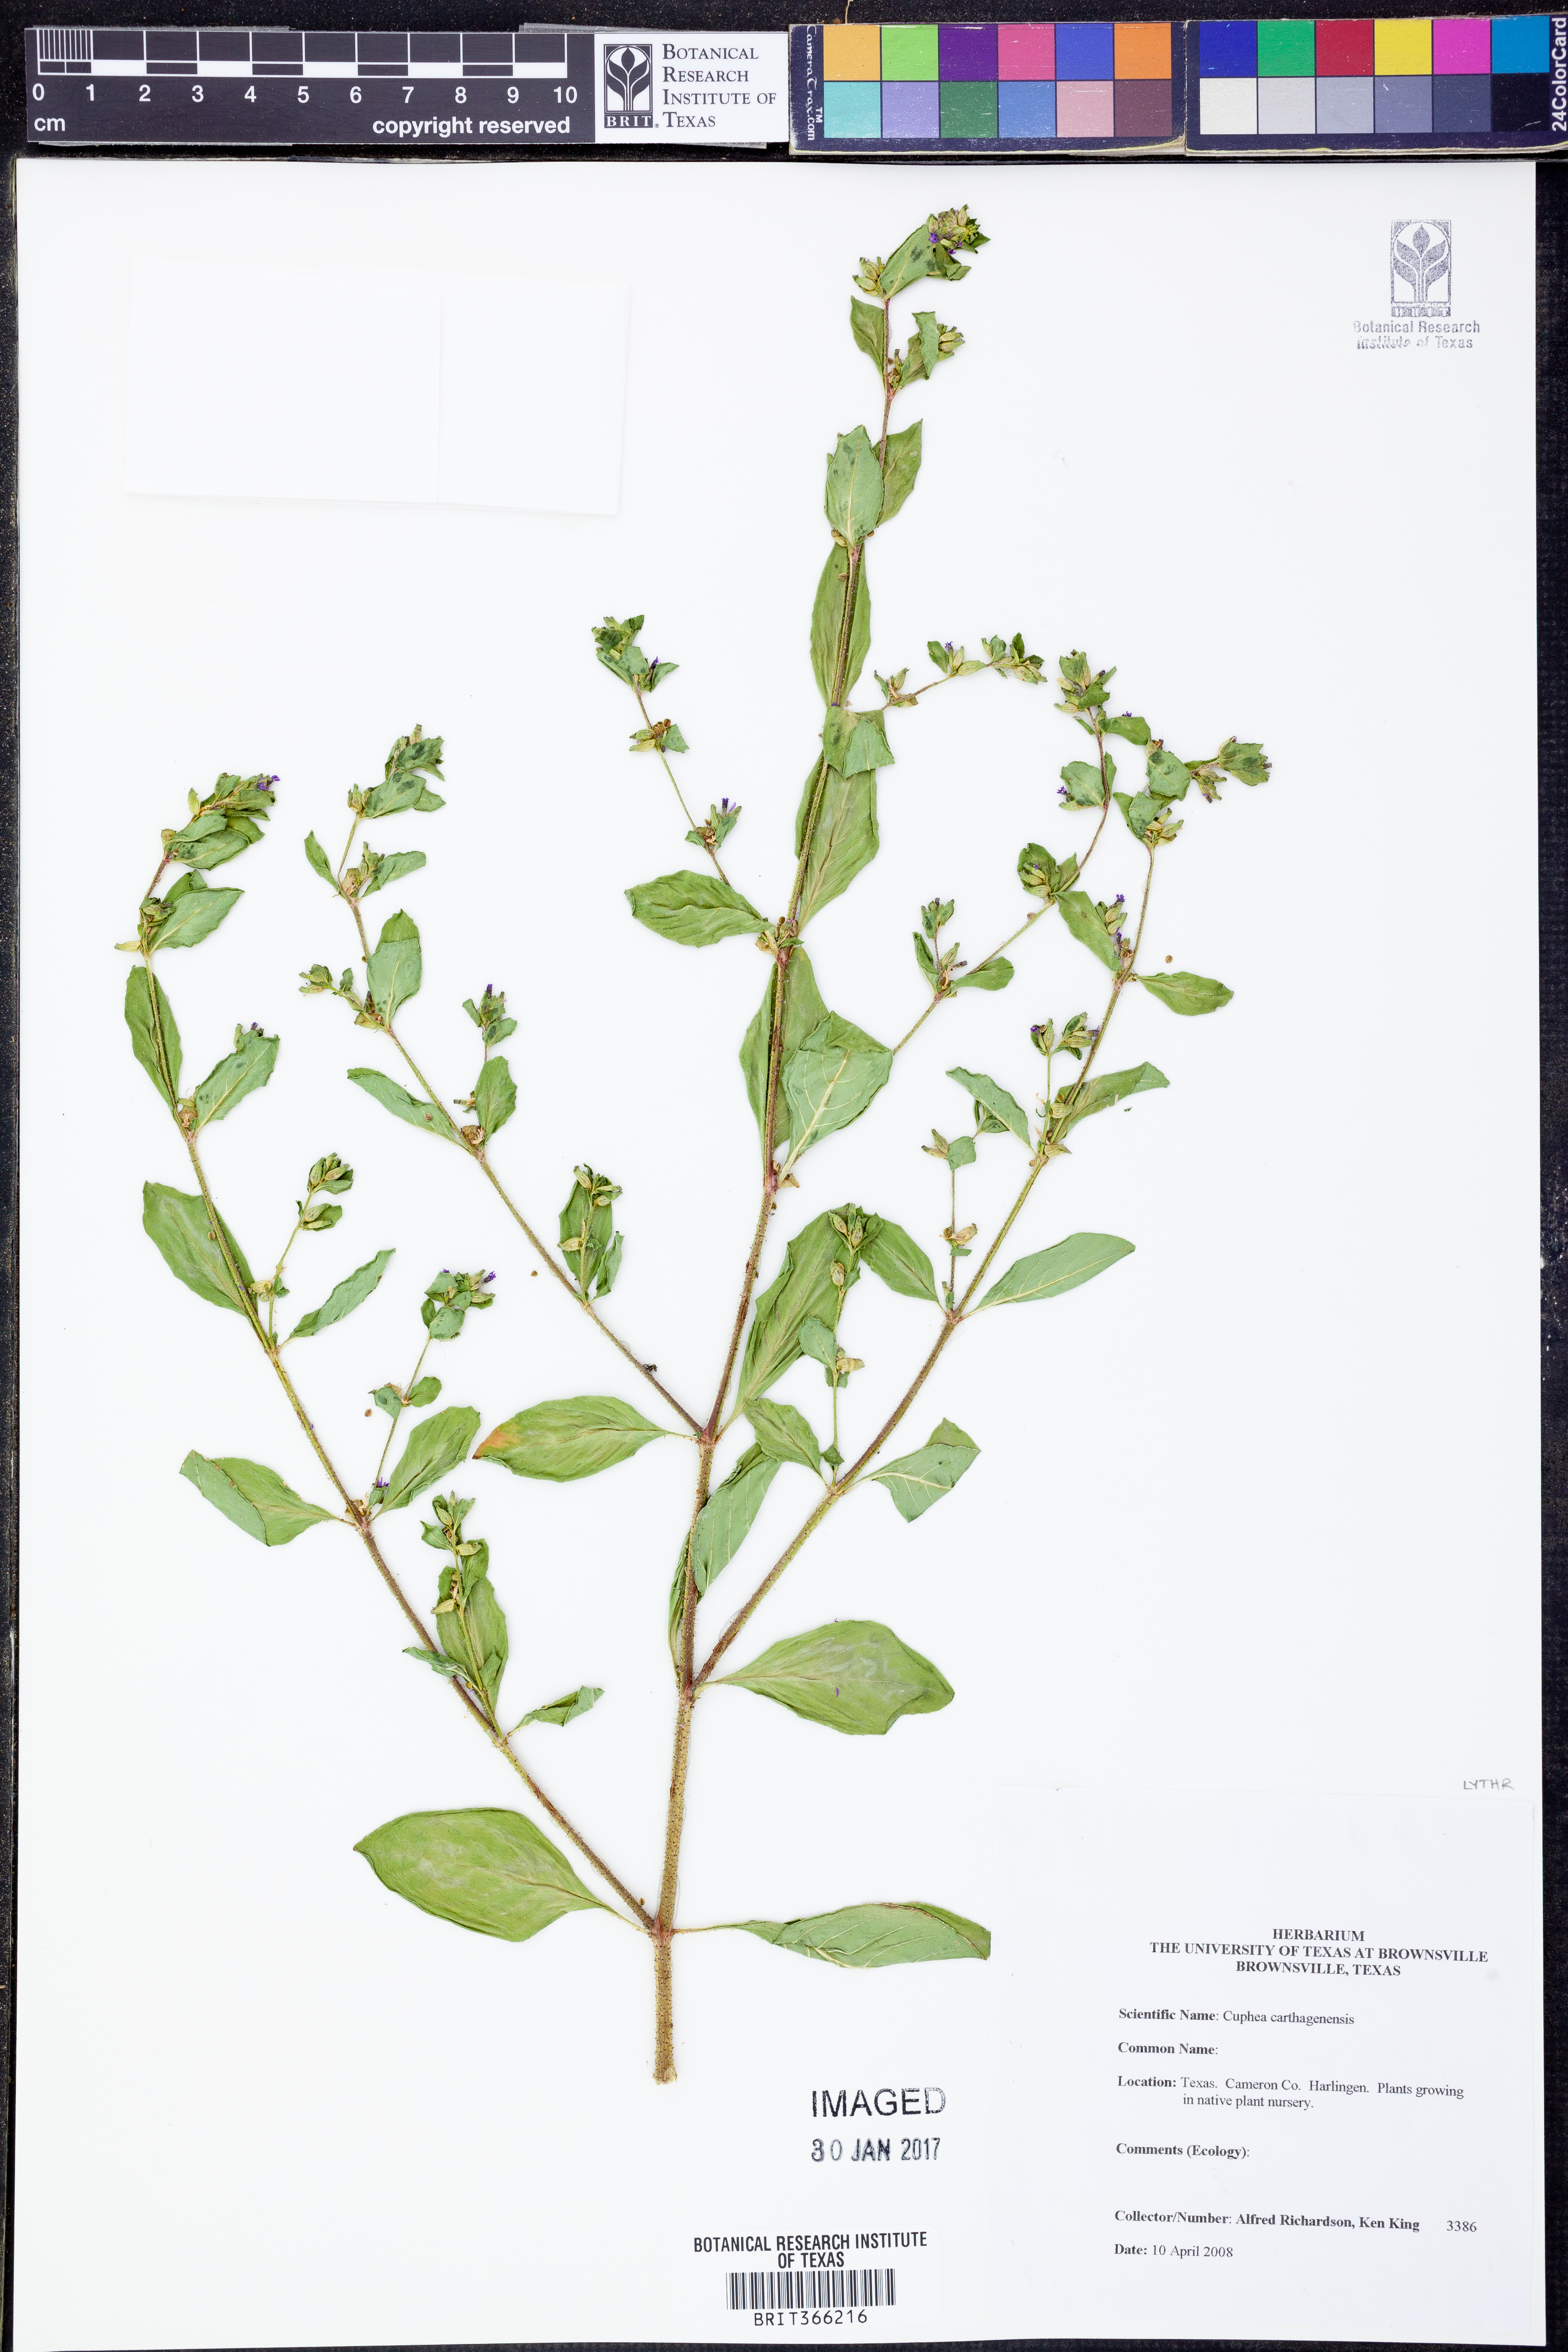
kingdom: Plantae
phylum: Tracheophyta
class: Magnoliopsida
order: Myrtales
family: Lythraceae
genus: Cuphea
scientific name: Cuphea carthagenensis
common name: Colombian waxweed
